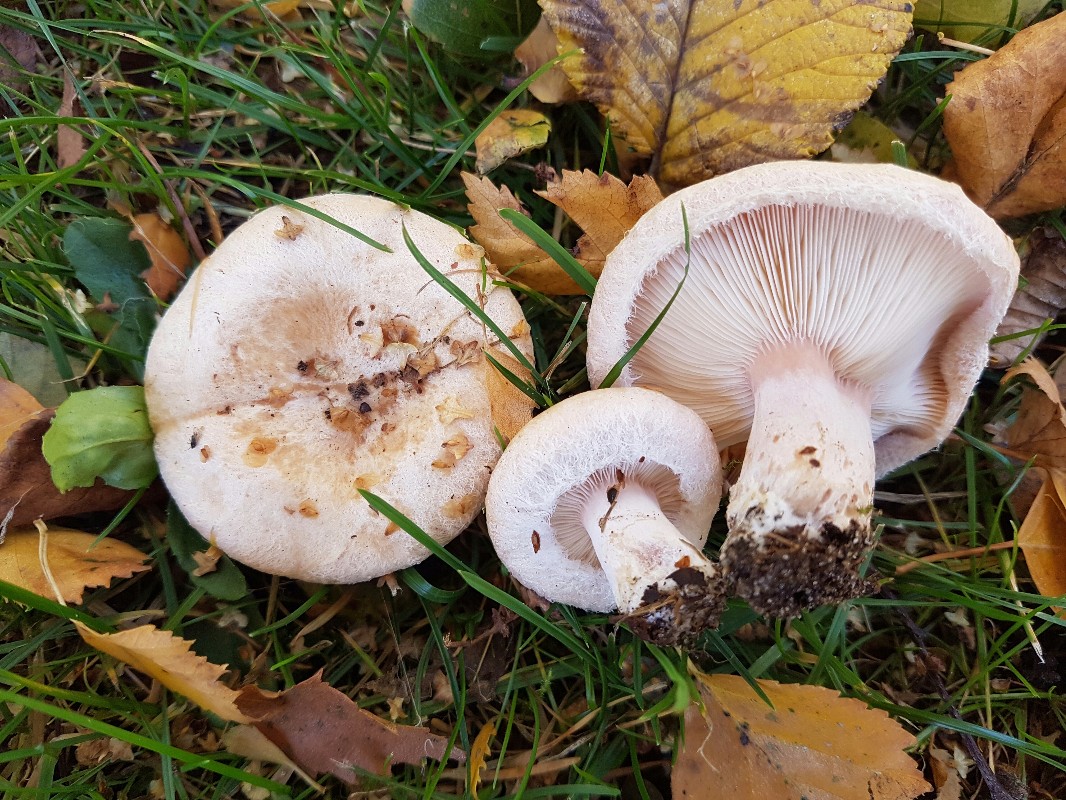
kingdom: Fungi
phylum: Basidiomycota
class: Agaricomycetes
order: Russulales
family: Russulaceae
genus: Lactarius
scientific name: Lactarius pubescens
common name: dunet mælkehat
